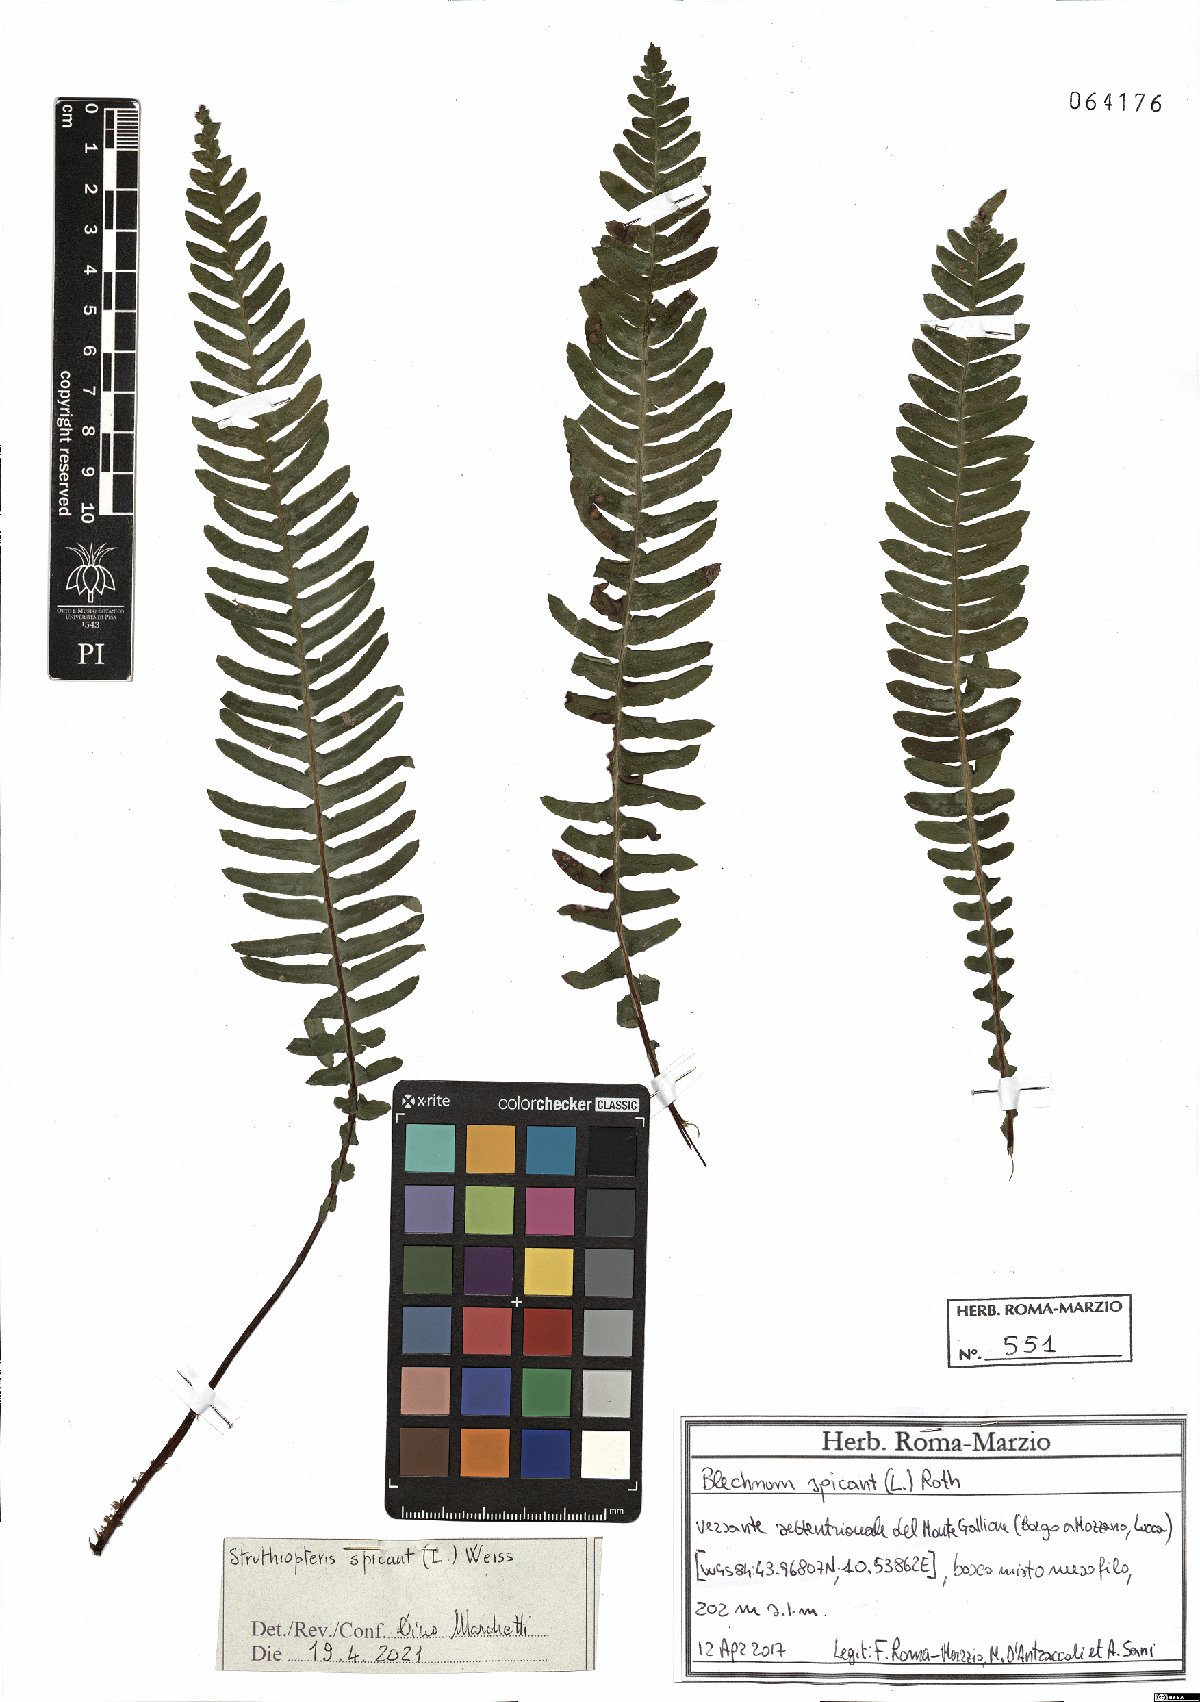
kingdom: Plantae
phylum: Tracheophyta
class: Polypodiopsida
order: Polypodiales
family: Blechnaceae
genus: Struthiopteris
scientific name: Struthiopteris spicant
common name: Deer fern
